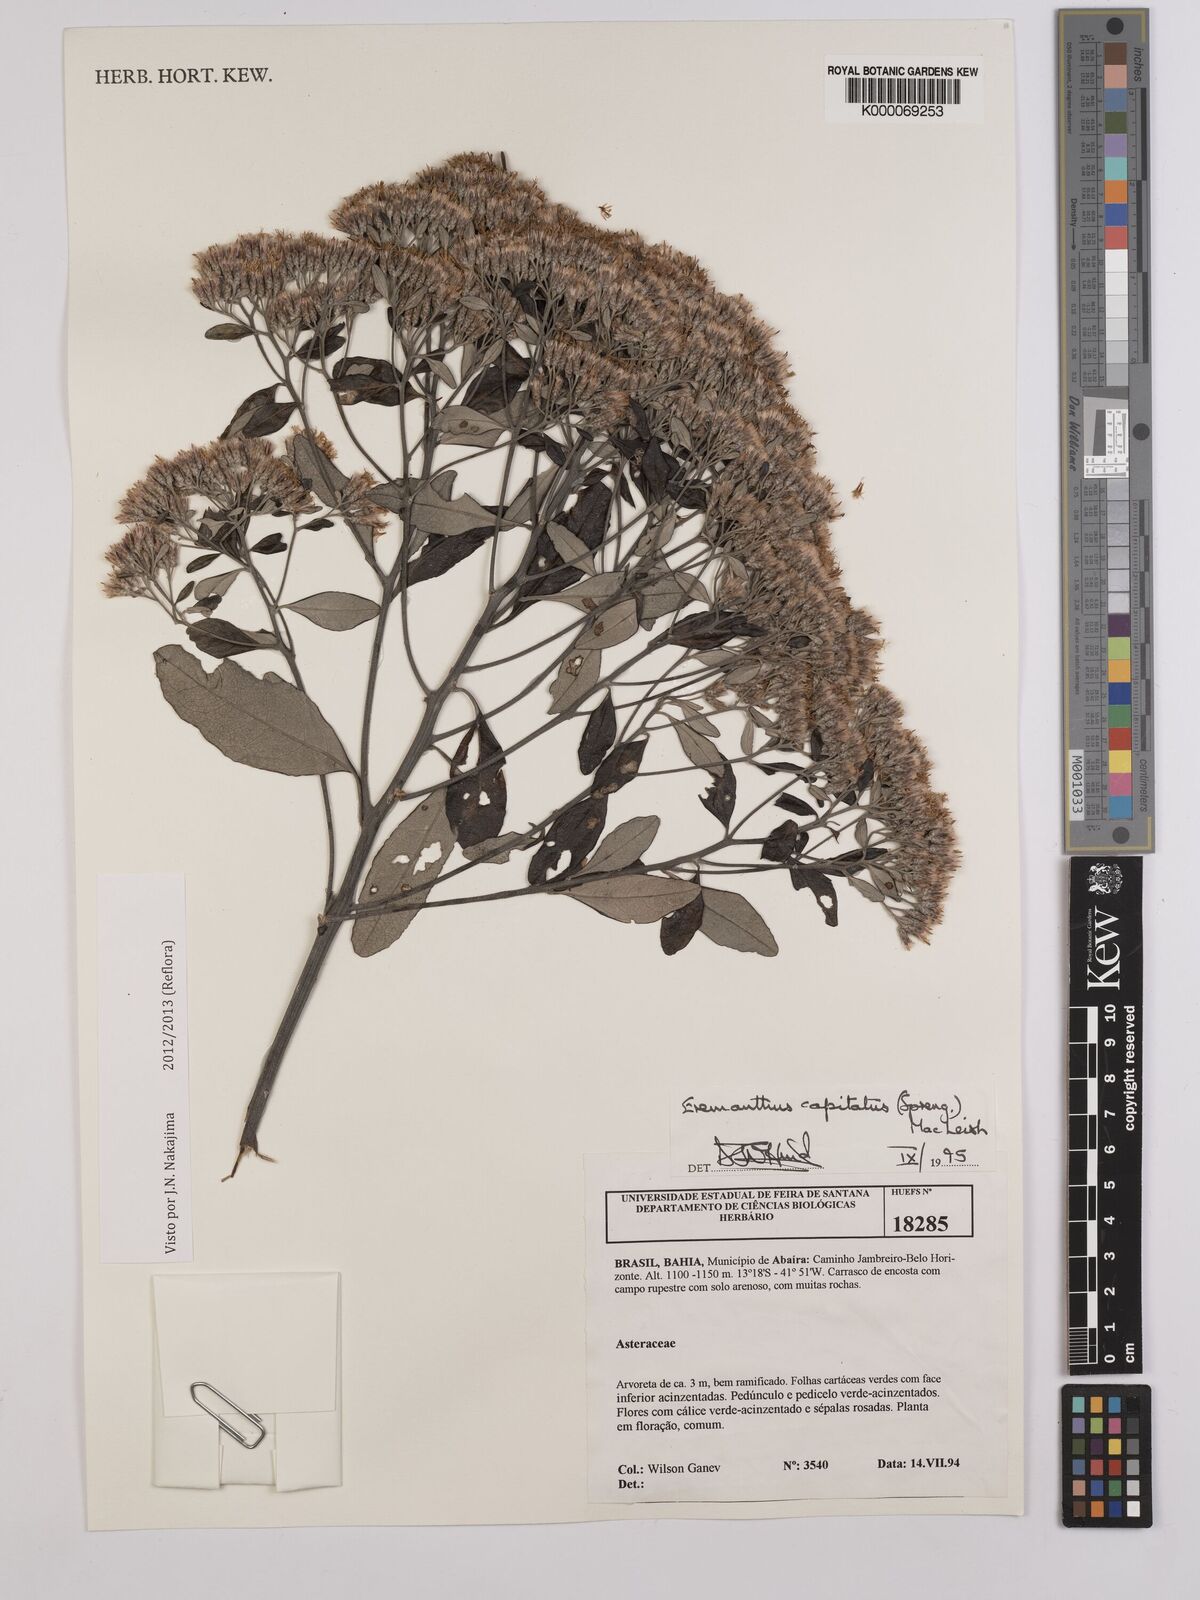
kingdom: Plantae
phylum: Tracheophyta
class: Magnoliopsida
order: Asterales
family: Asteraceae
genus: Eremanthus
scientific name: Eremanthus capitatus
